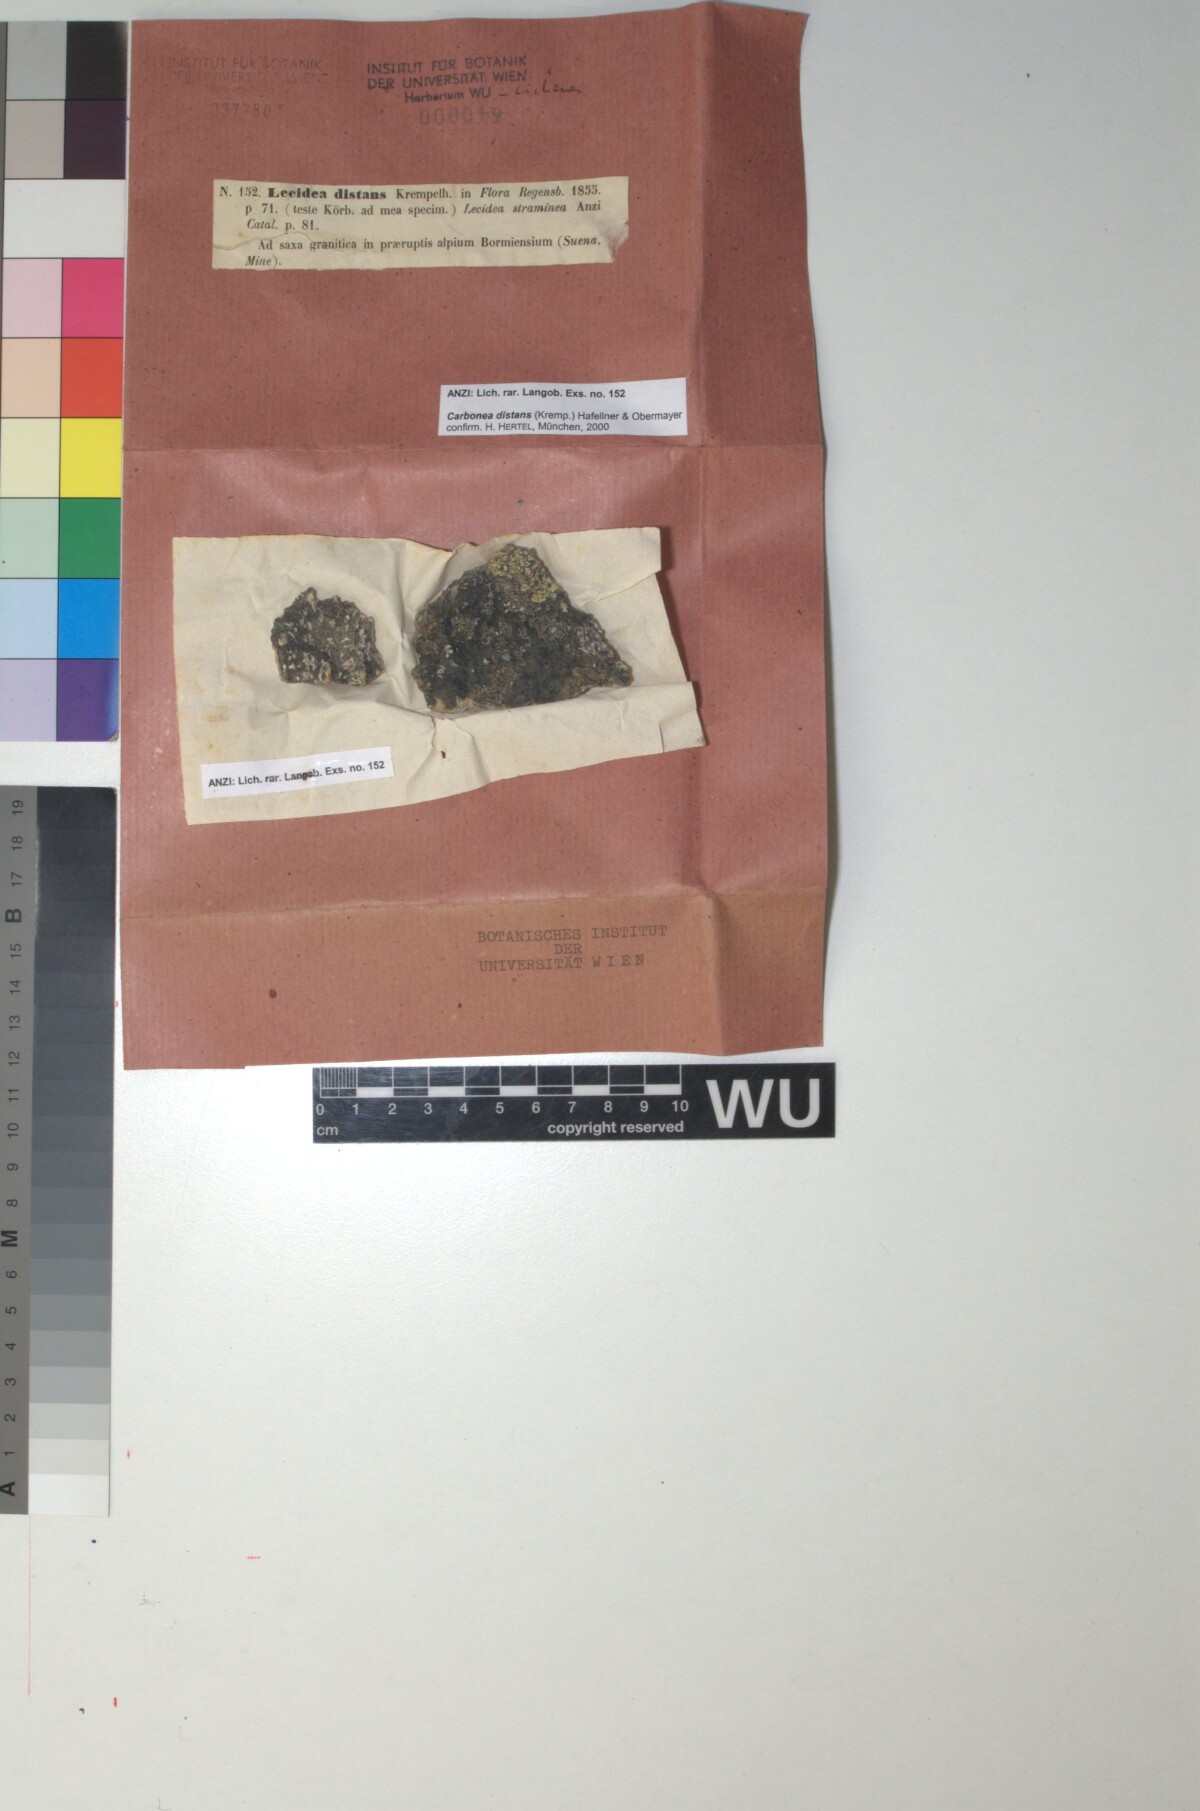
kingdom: Fungi
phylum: Ascomycota
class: Lecanoromycetes
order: Lecanorales
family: Lecanoraceae
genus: Lecidella
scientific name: Lecidella pulveracea
